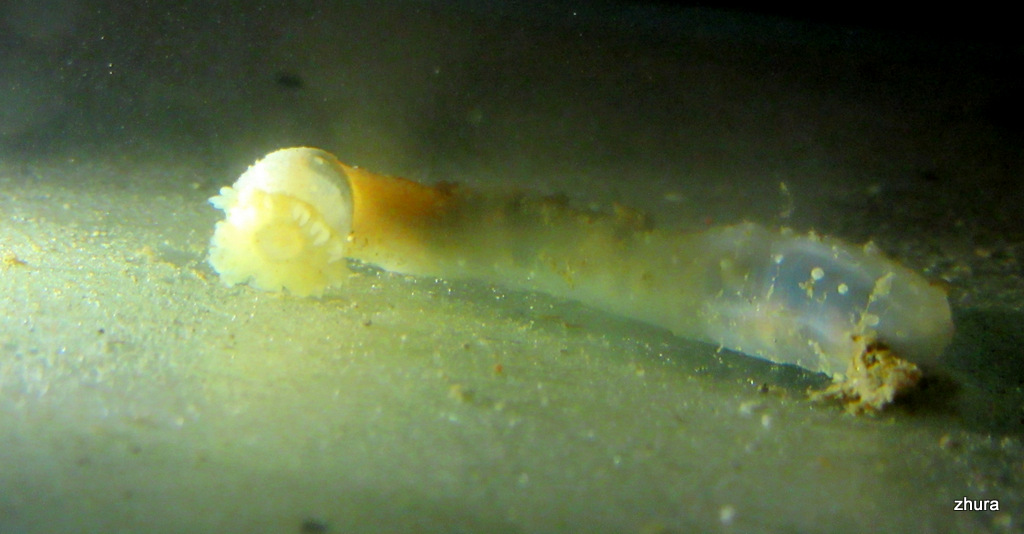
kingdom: Animalia
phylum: Echinodermata
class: Holothuroidea
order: Apodida
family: Chiridotidae
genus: Chiridota
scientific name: Chiridota laevis
